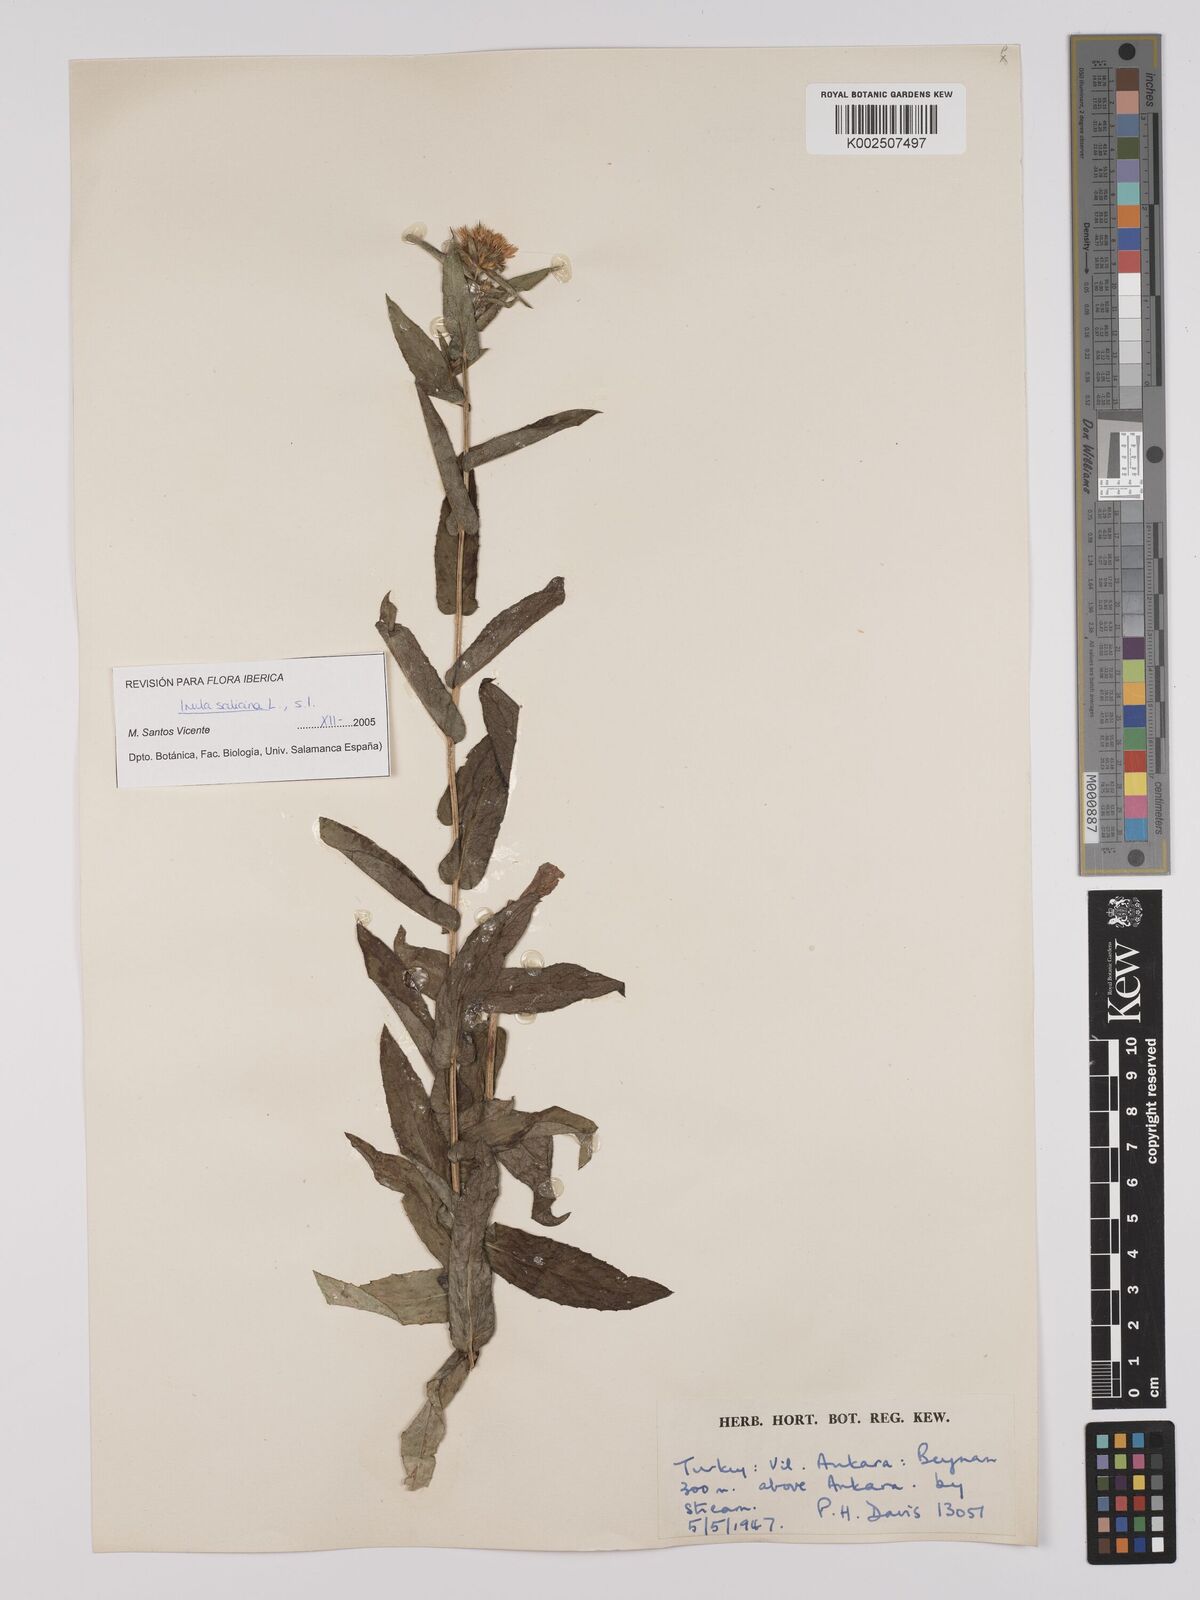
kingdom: Plantae
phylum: Tracheophyta
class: Magnoliopsida
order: Asterales
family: Asteraceae
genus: Pentanema
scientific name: Pentanema salicinum
